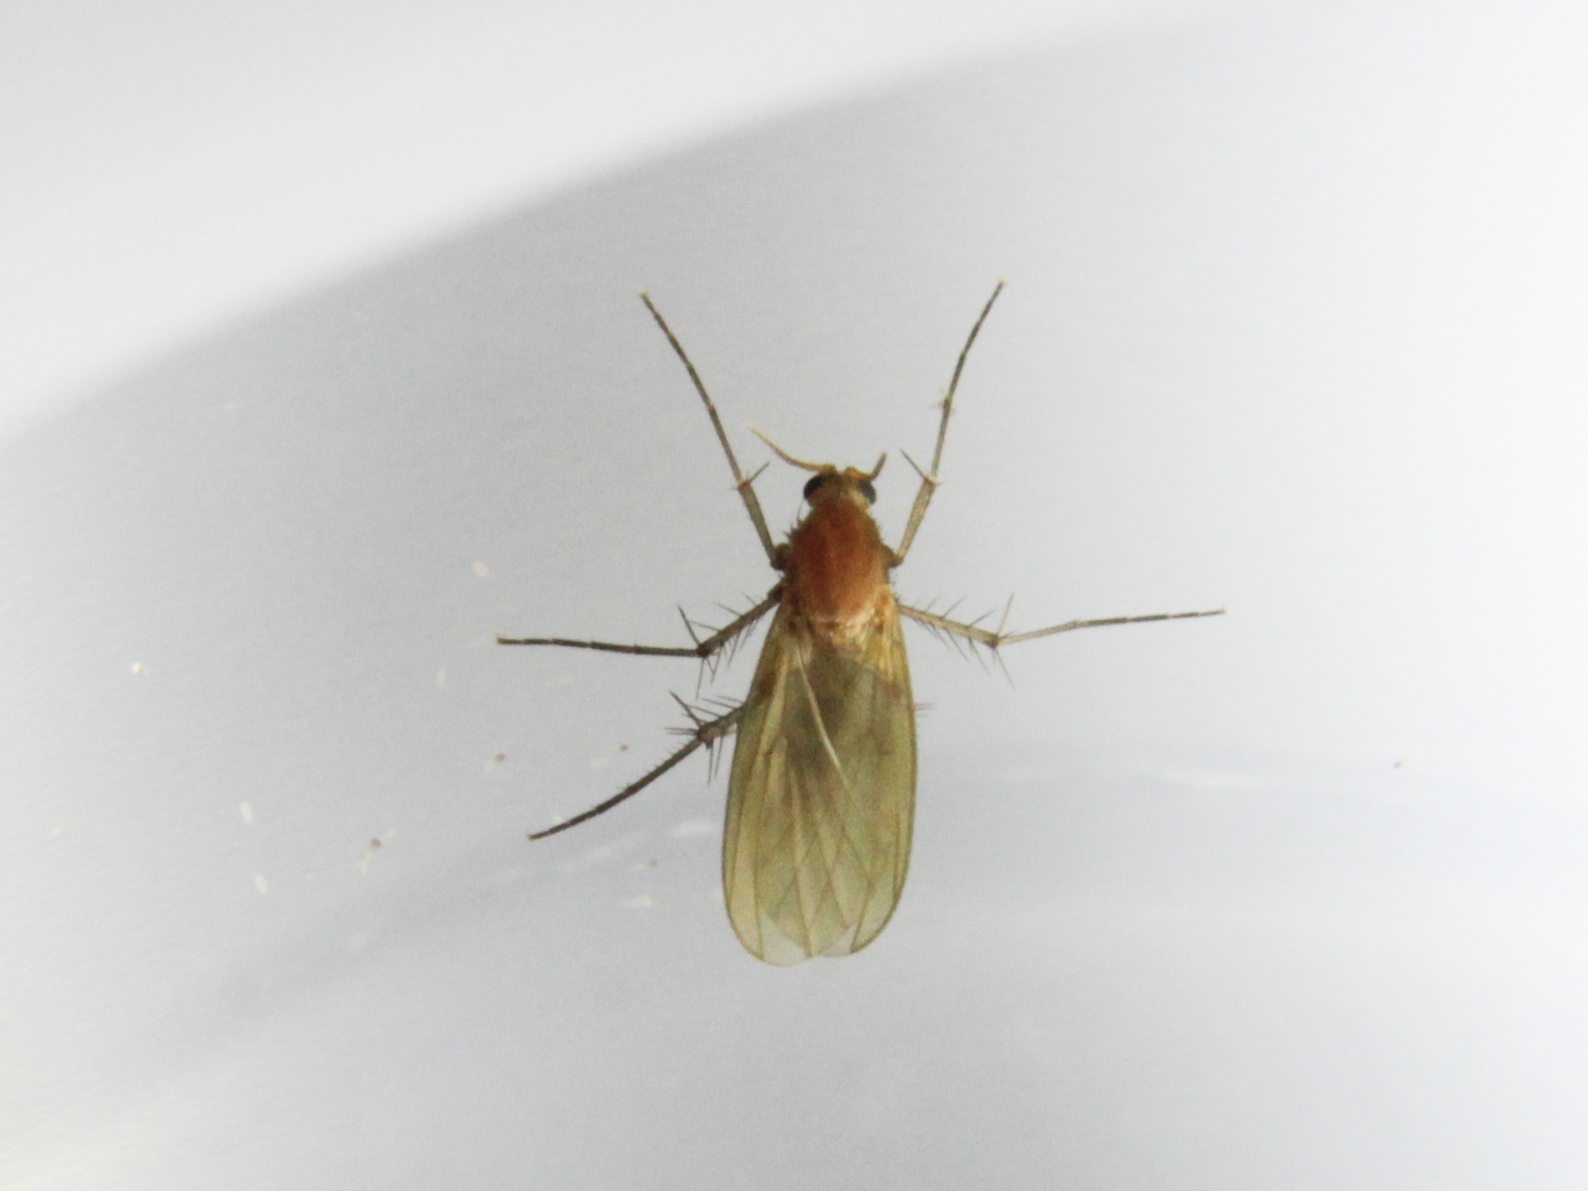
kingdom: Animalia
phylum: Arthropoda
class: Insecta
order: Diptera
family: Mycetophilidae
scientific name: Mycetophilidae
